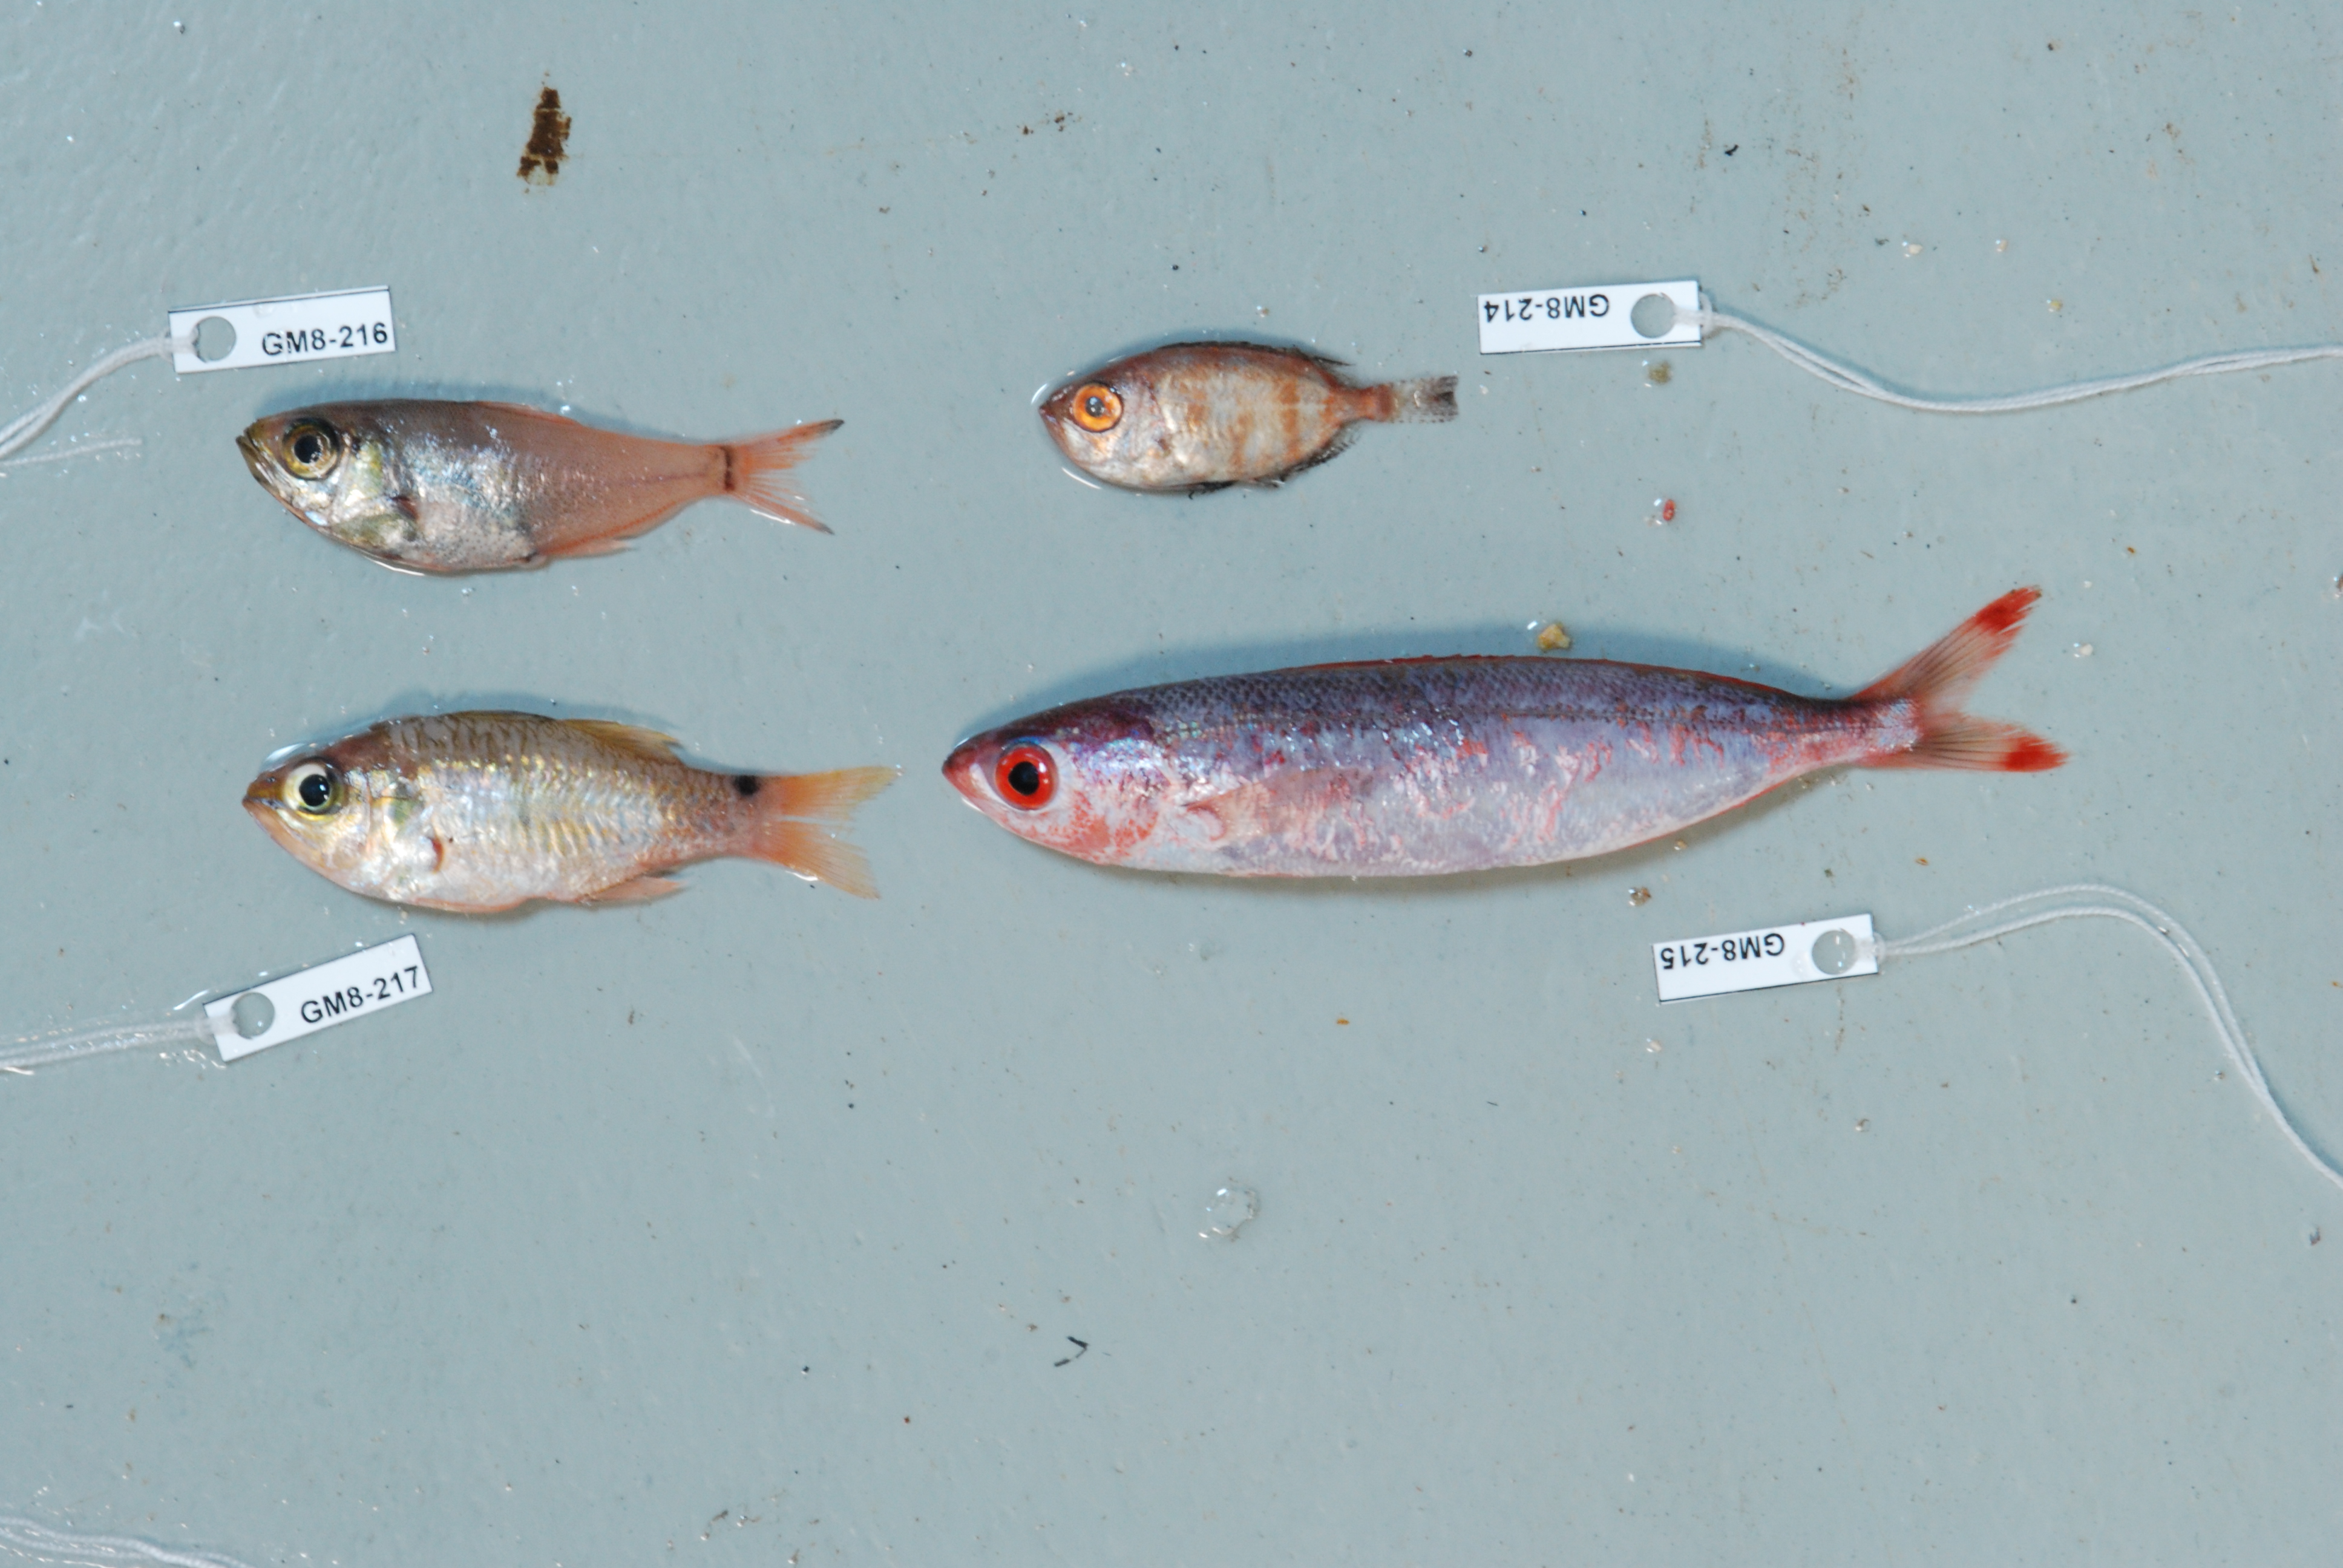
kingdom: Animalia
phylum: Chordata
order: Perciformes
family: Apogonidae
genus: Ostorhinchus
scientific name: Ostorhinchus spilurus
